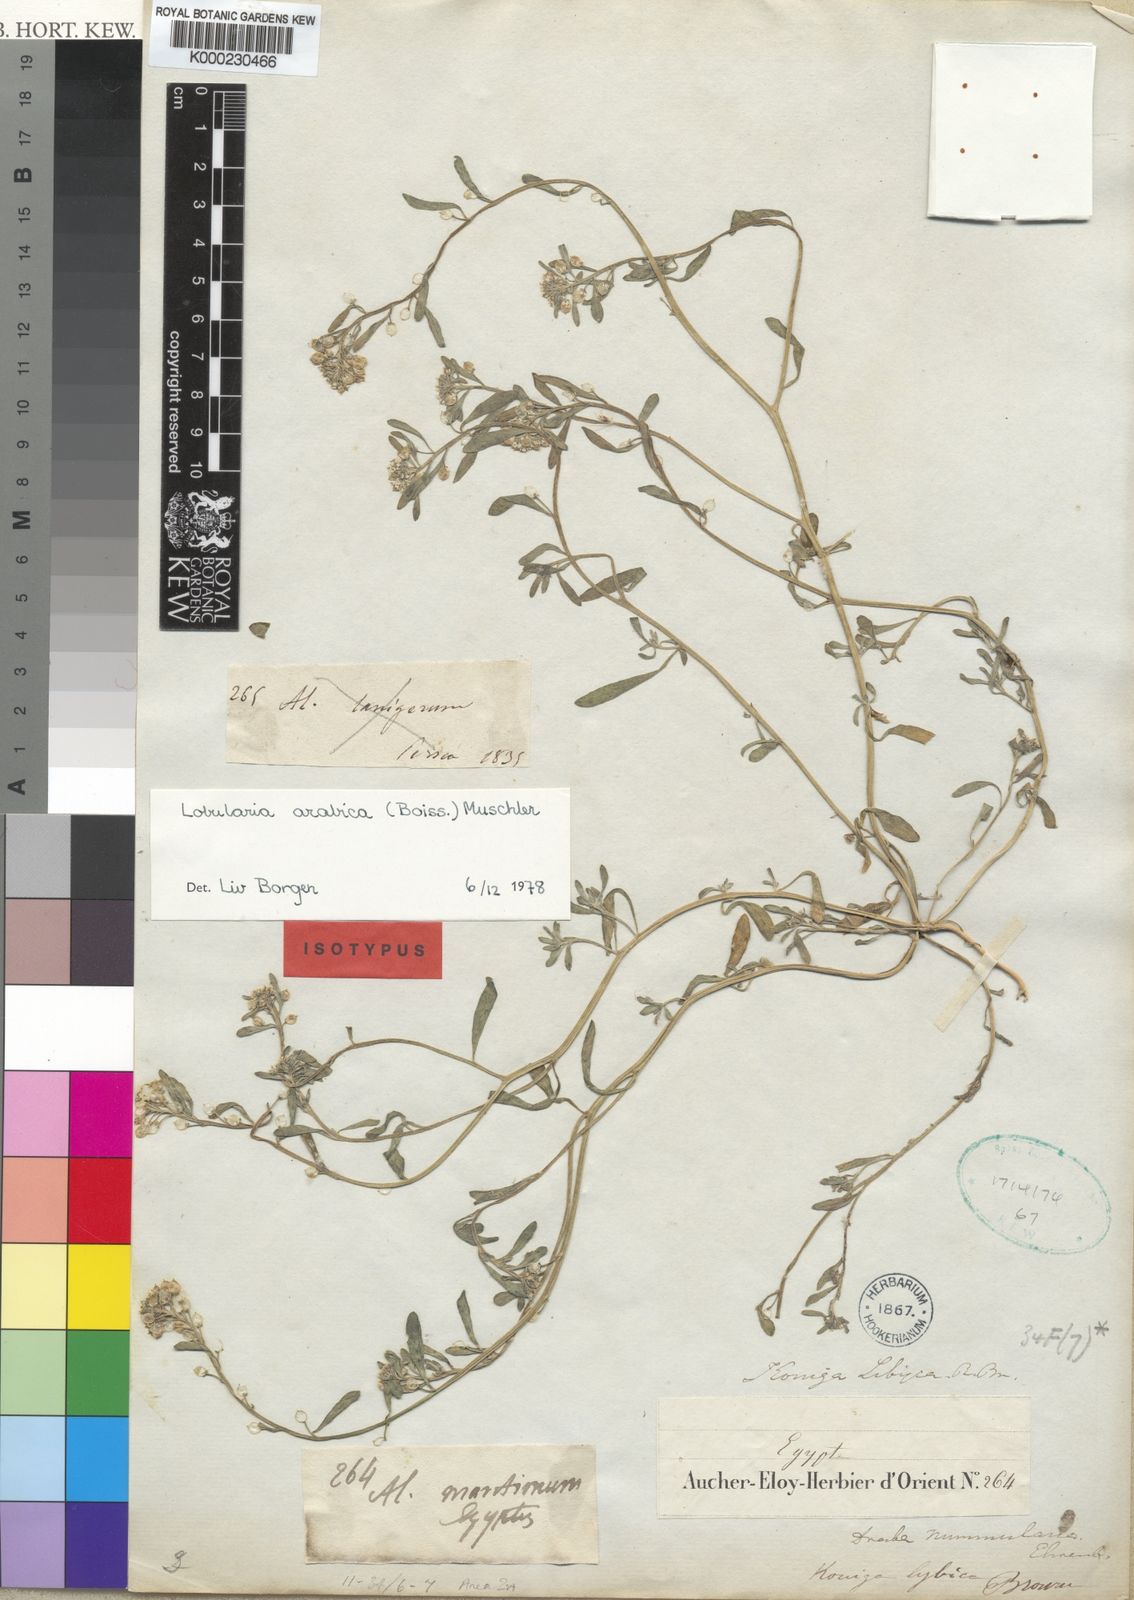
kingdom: Plantae
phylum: Tracheophyta
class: Magnoliopsida
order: Brassicales
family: Brassicaceae
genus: Lobularia
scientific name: Lobularia arabica
